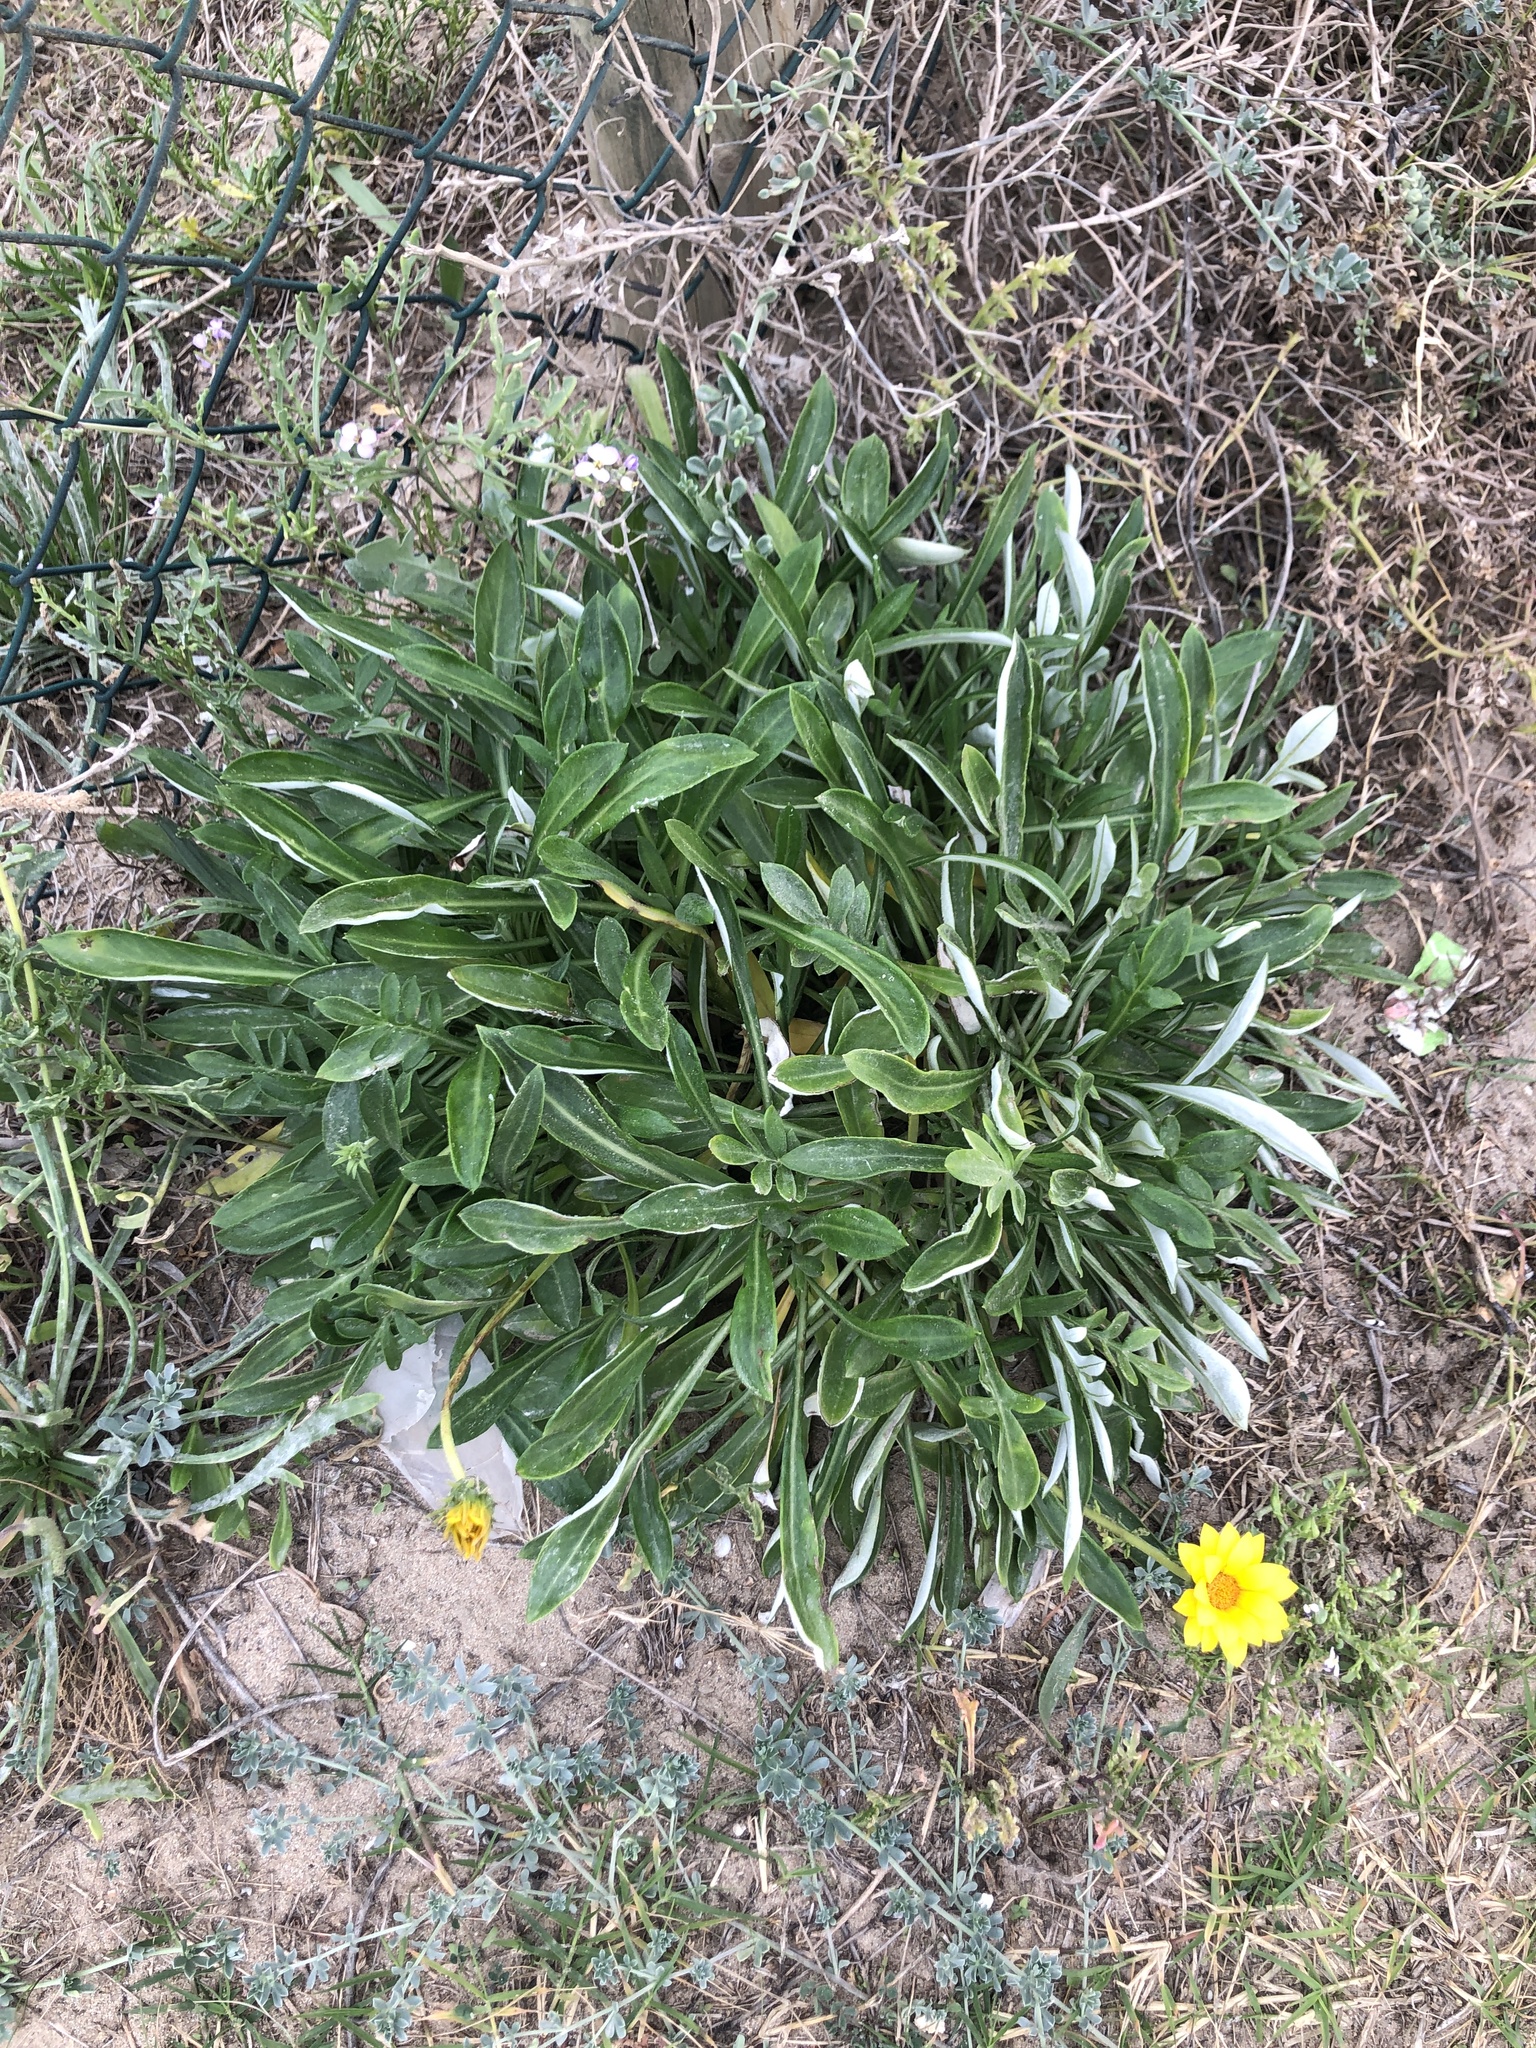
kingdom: Plantae
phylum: Tracheophyta
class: Magnoliopsida
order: Asterales
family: Asteraceae
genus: Gazania
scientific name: Gazania rigens
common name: Treasureflower
